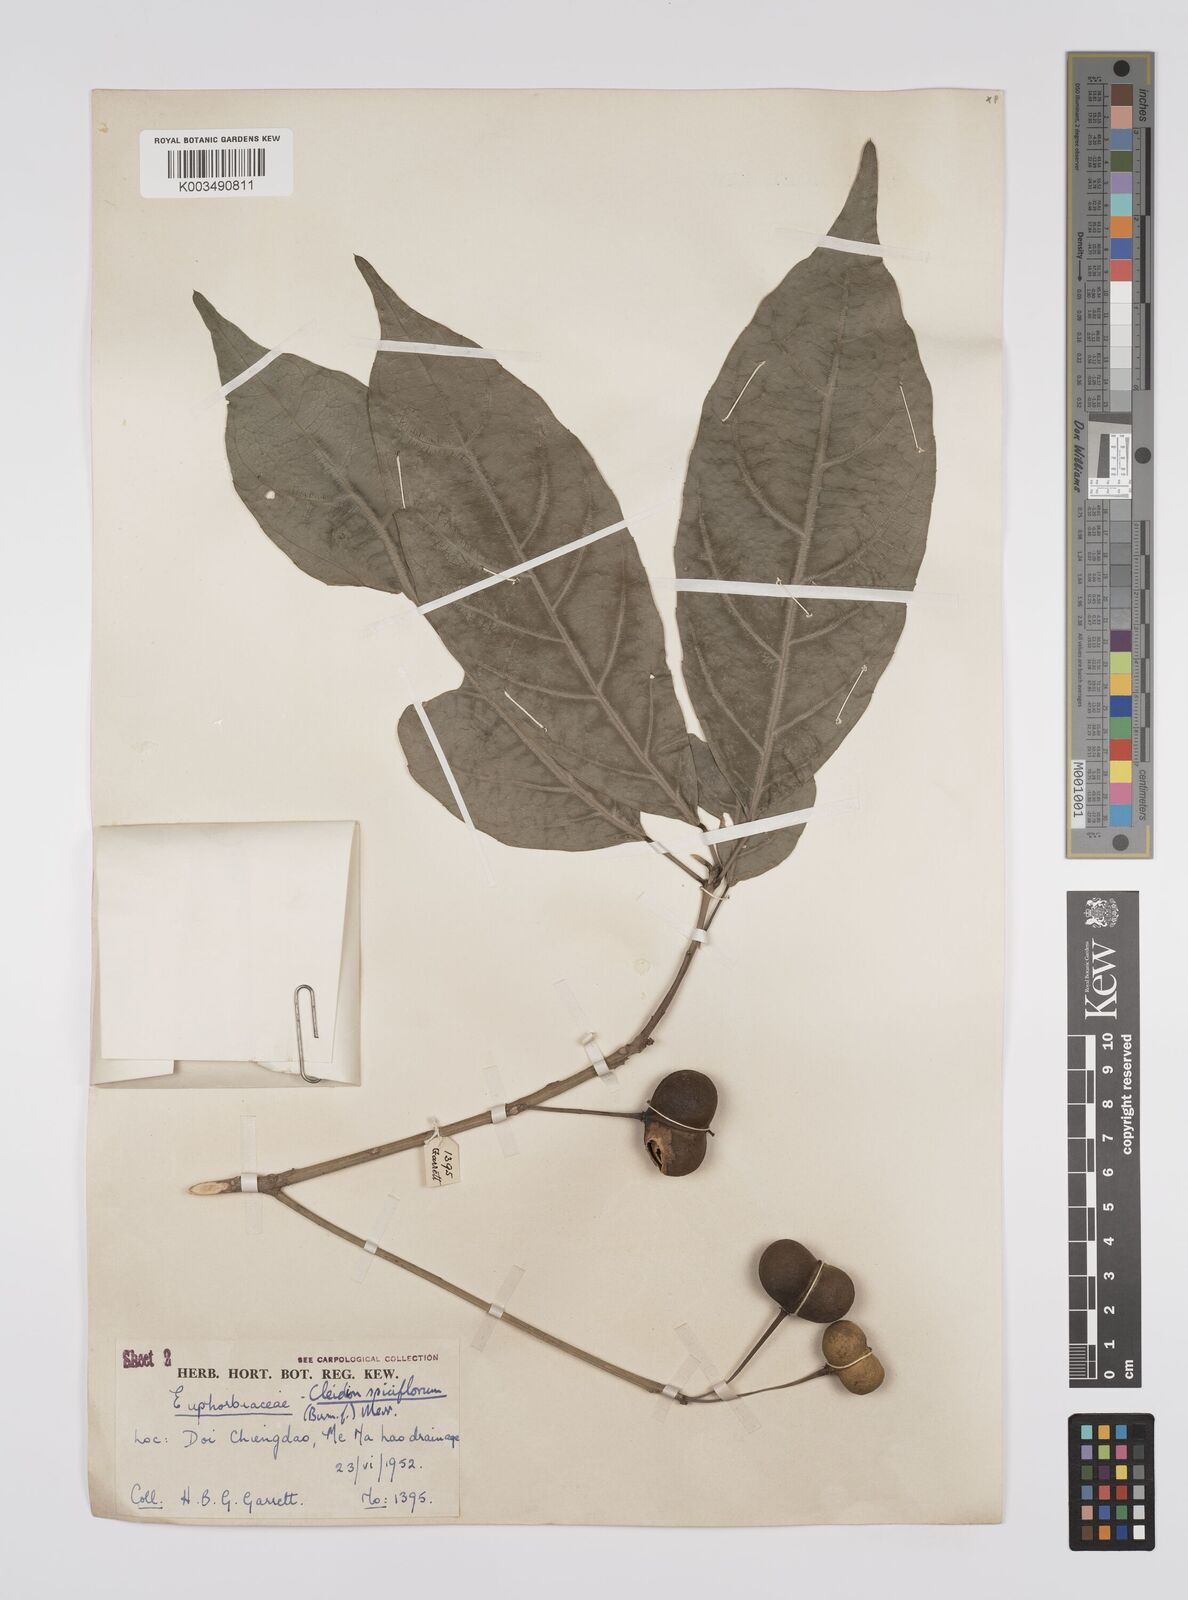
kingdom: Plantae
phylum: Tracheophyta
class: Magnoliopsida
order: Malpighiales
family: Euphorbiaceae
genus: Acalypha
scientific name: Acalypha spiciflora
